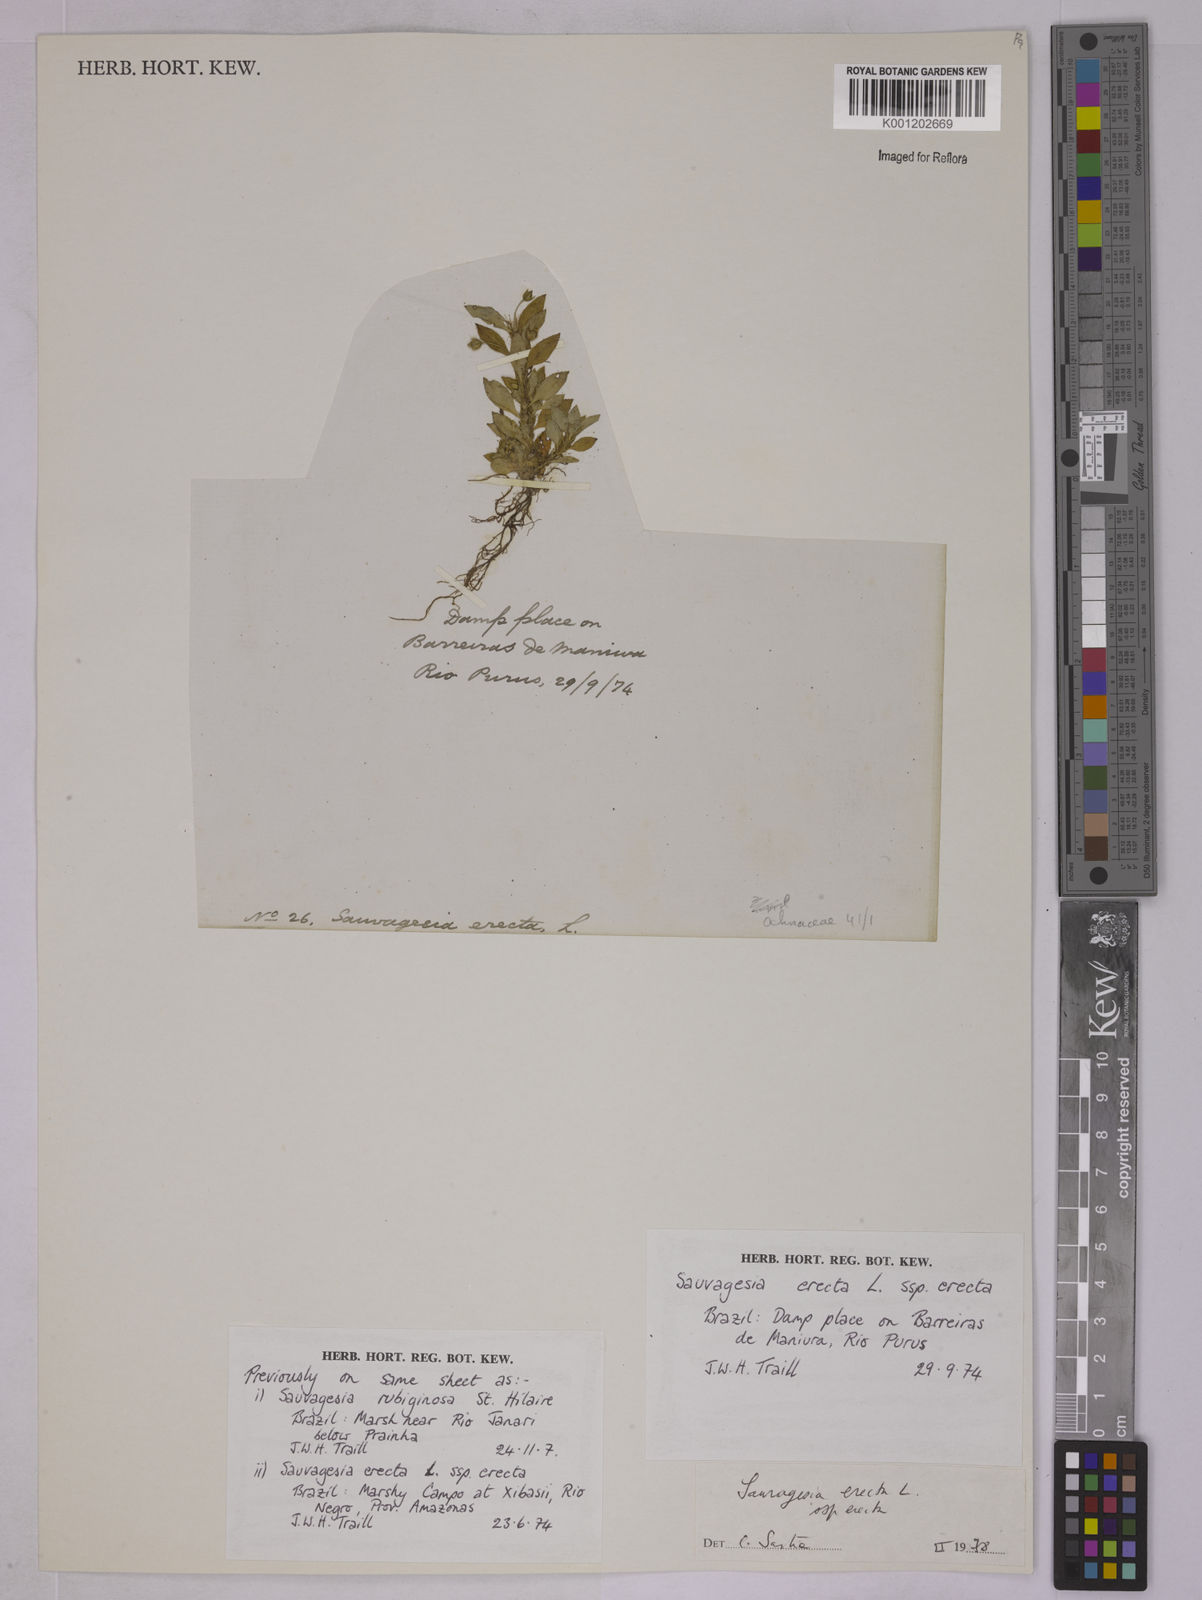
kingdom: Plantae
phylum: Tracheophyta
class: Magnoliopsida
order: Malpighiales
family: Ochnaceae
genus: Sauvagesia
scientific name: Sauvagesia erecta
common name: Creole tea
